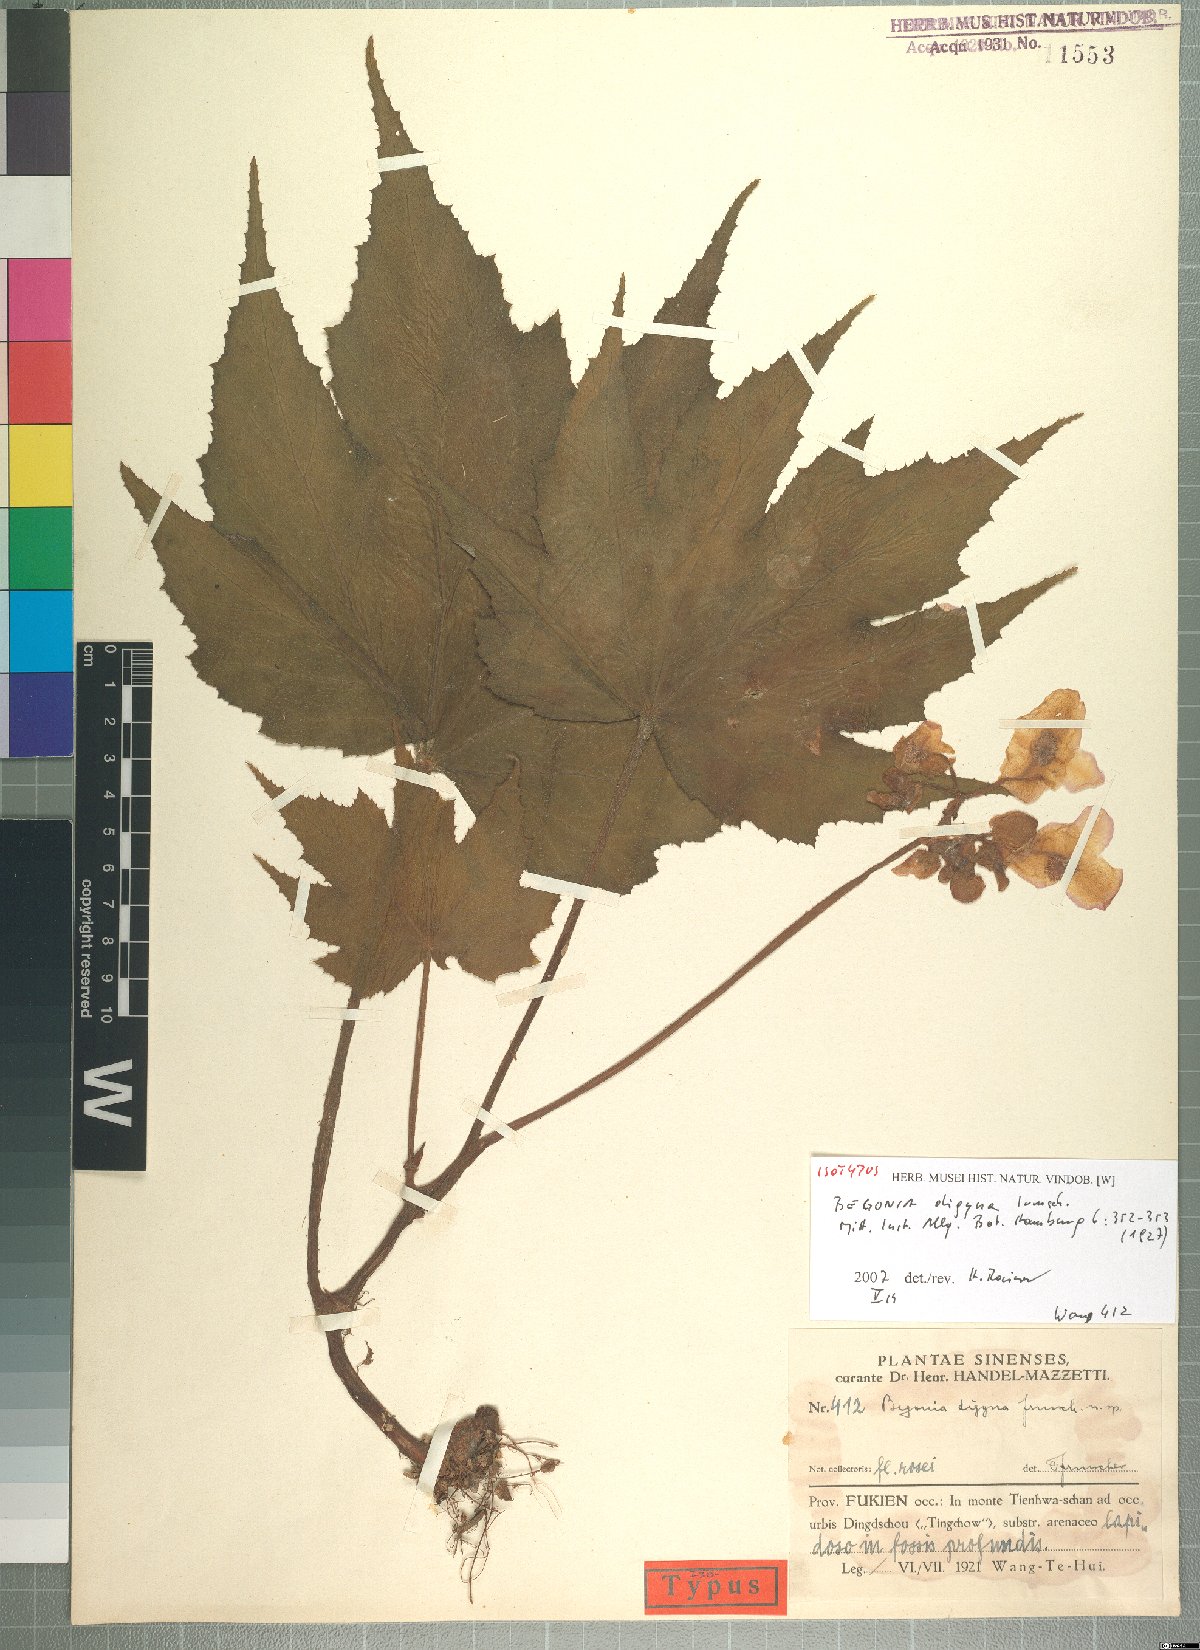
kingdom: Plantae
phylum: Tracheophyta
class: Magnoliopsida
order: Cucurbitales
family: Begoniaceae
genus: Begonia
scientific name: Begonia digyna
